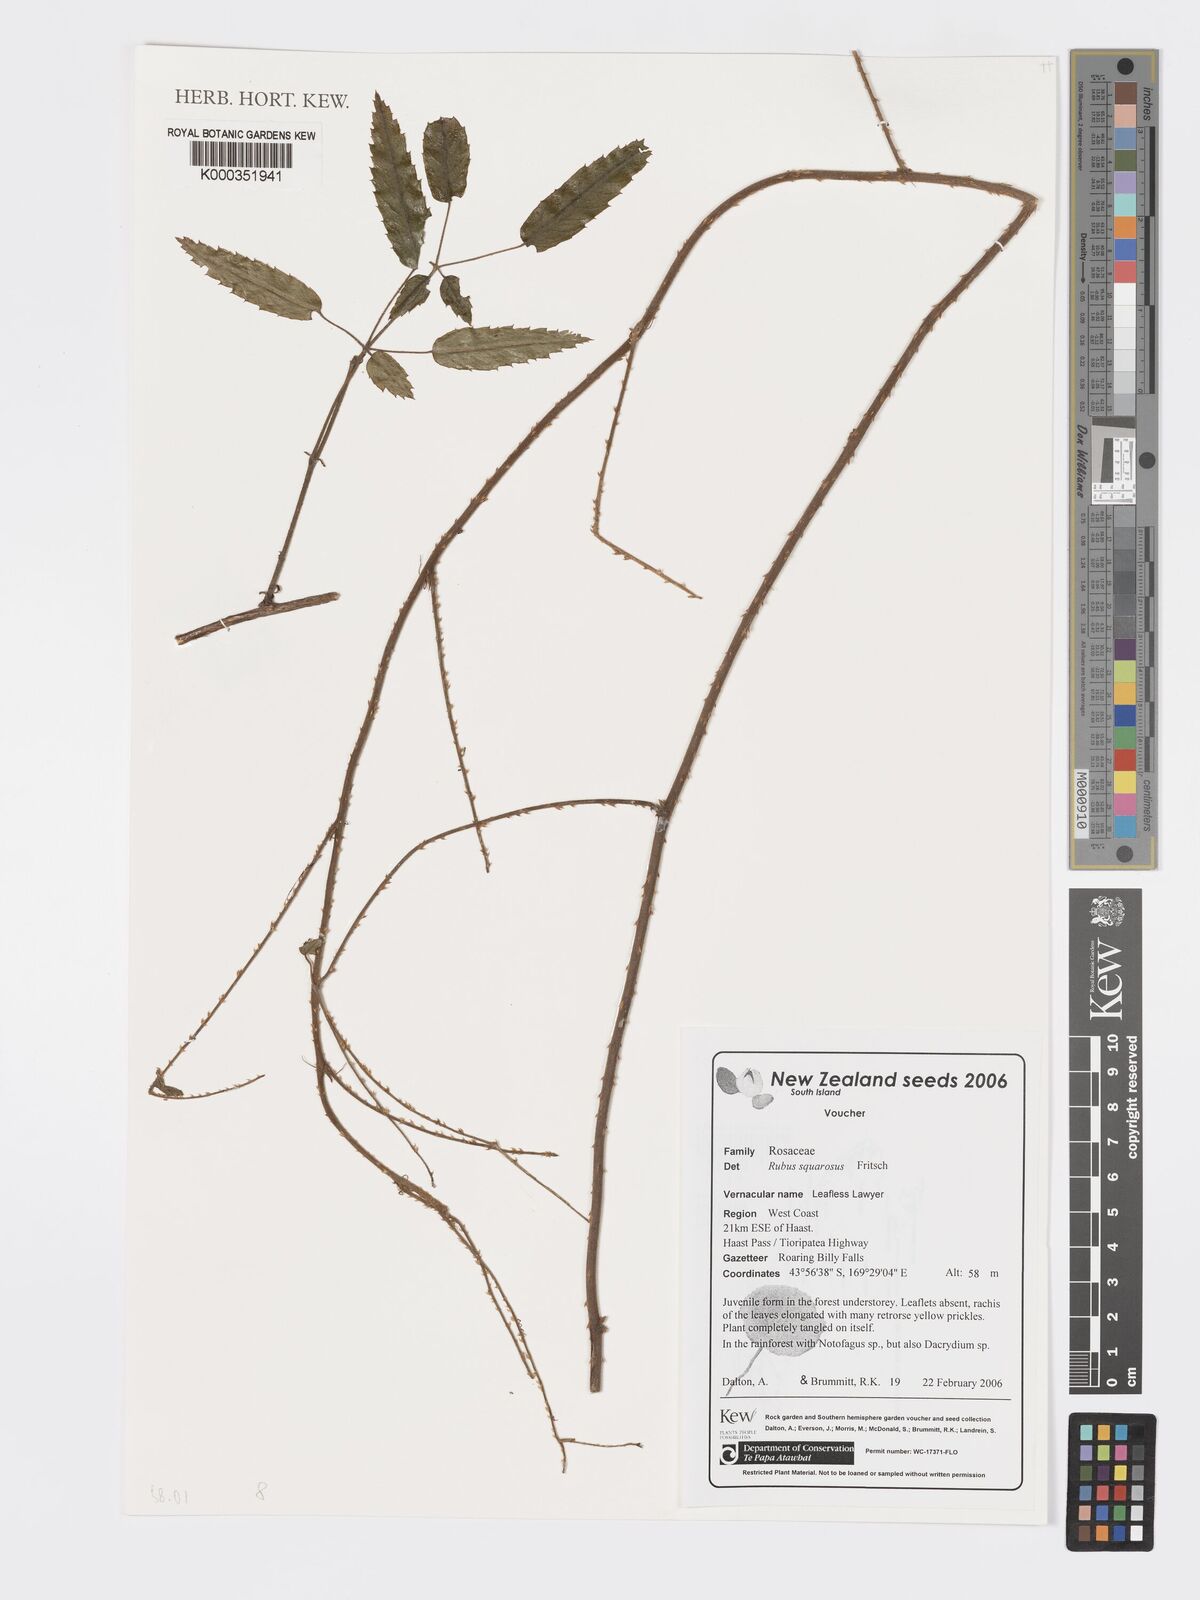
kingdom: Plantae
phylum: Tracheophyta
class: Magnoliopsida
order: Rosales
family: Rosaceae
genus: Rubus
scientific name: Rubus squarrosus
